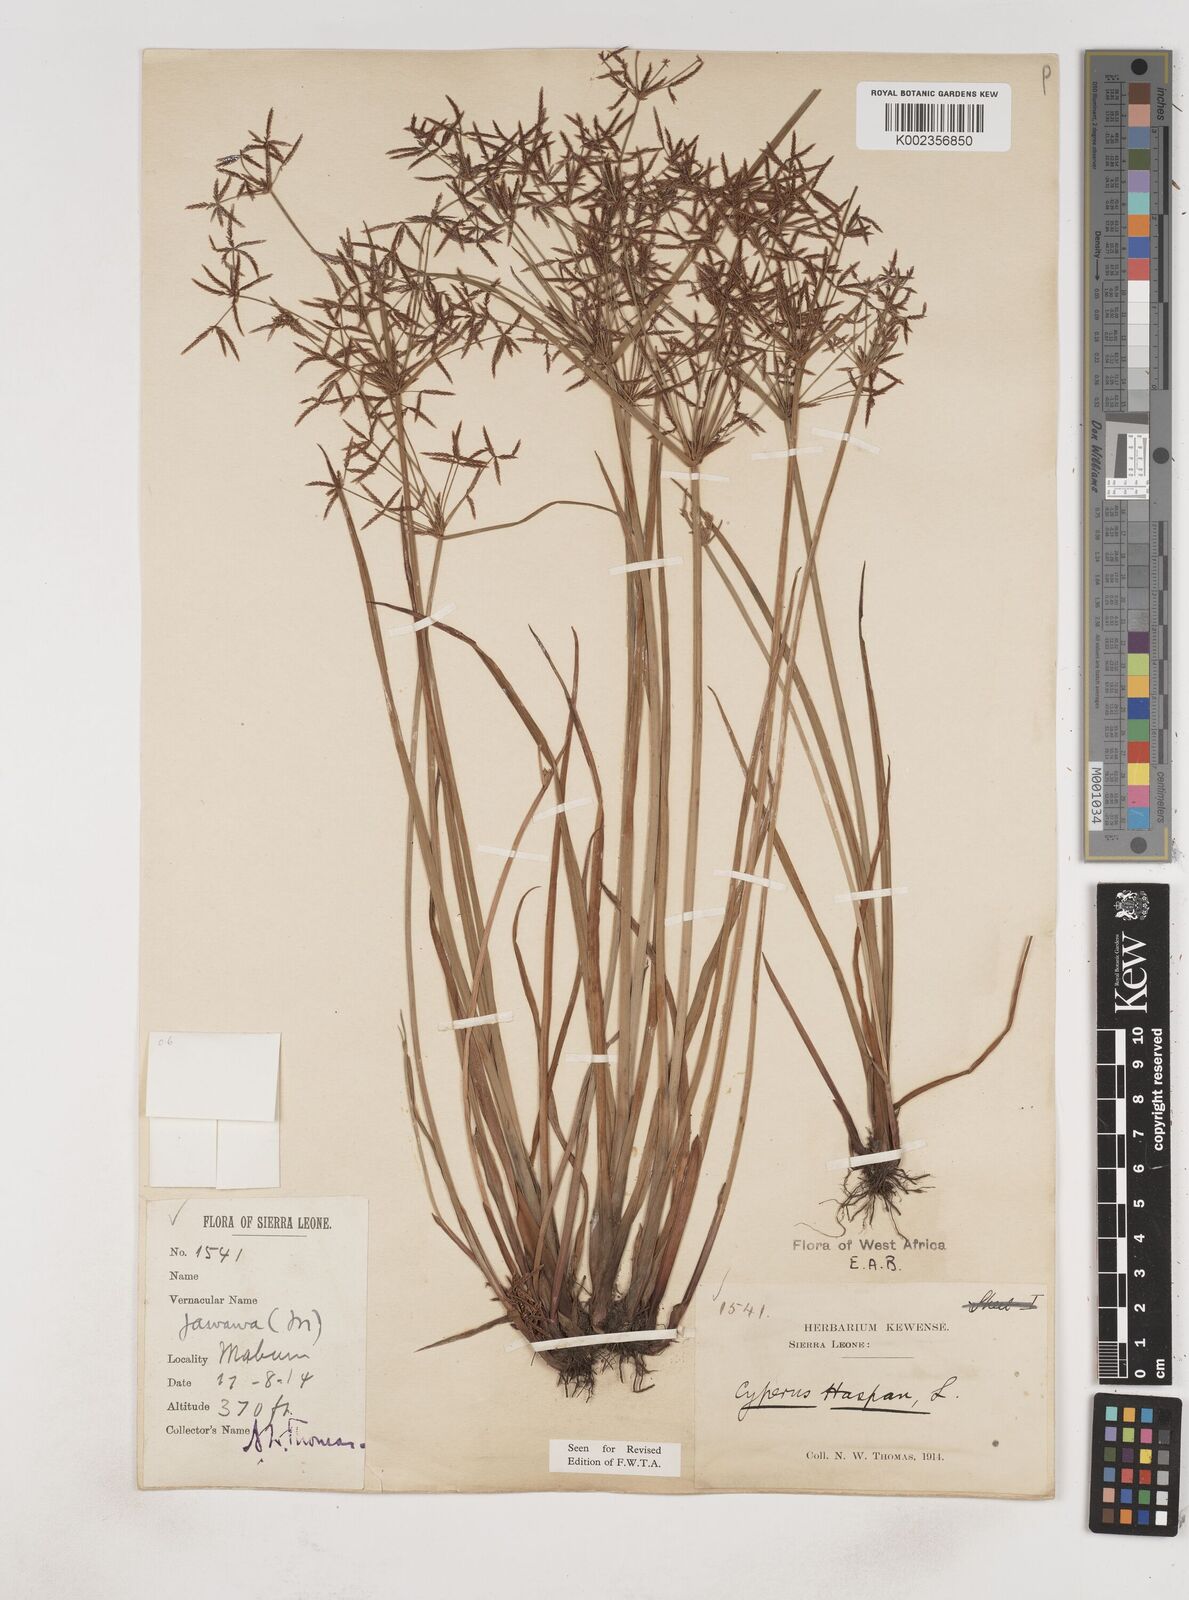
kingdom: Plantae
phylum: Tracheophyta
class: Liliopsida
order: Poales
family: Cyperaceae
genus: Cyperus
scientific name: Cyperus haspan
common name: Haspan flatsedge
